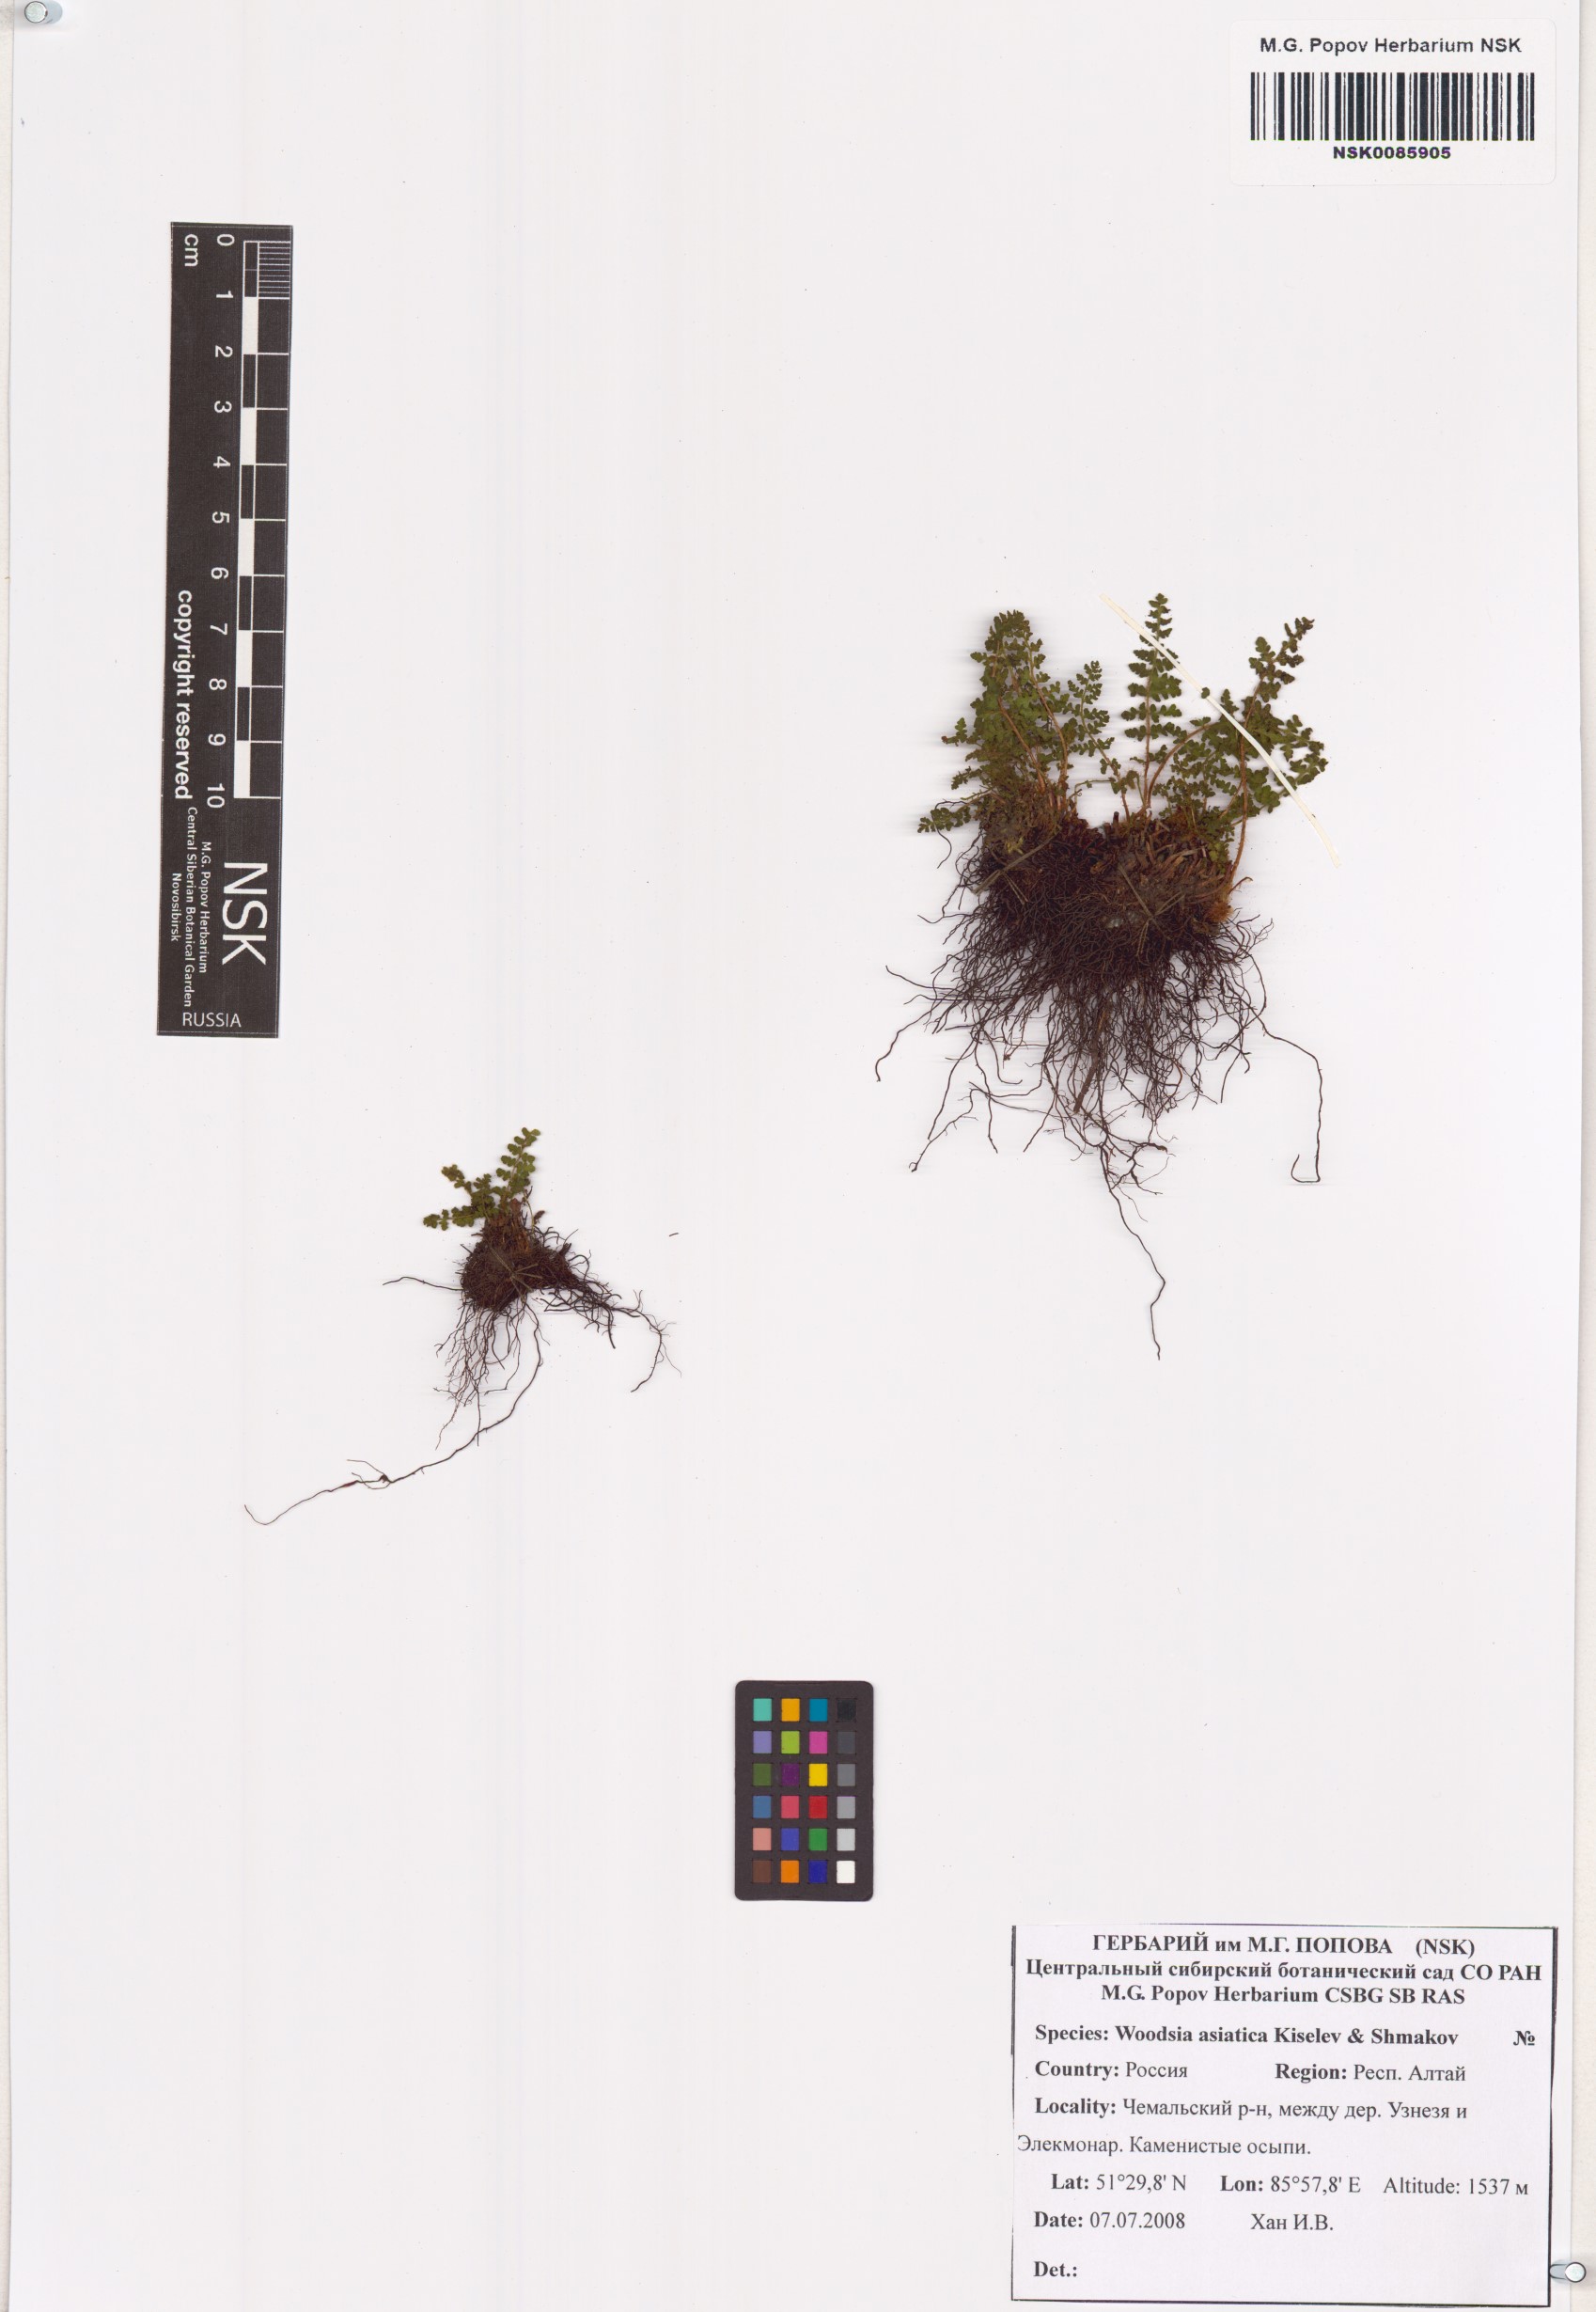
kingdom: Plantae
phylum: Tracheophyta
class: Polypodiopsida
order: Polypodiales
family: Woodsiaceae
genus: Woodsia
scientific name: Woodsia asiatica
